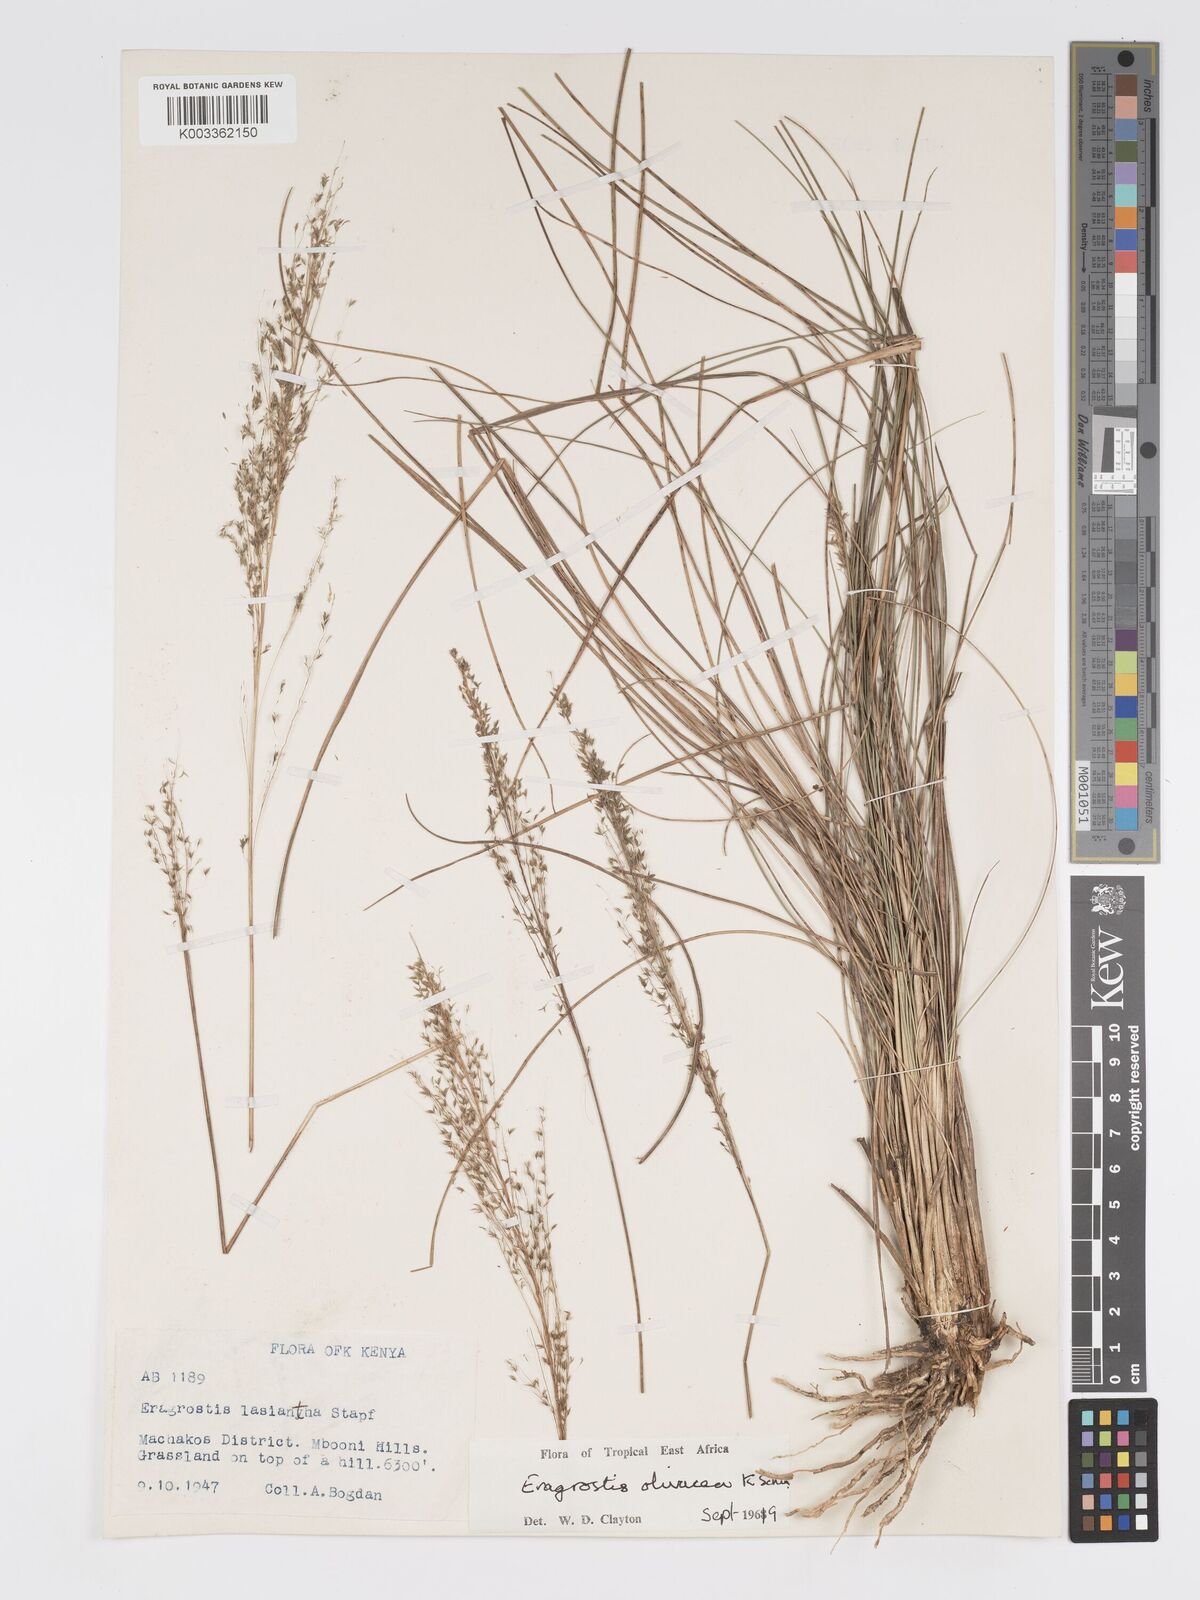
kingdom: Plantae
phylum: Tracheophyta
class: Liliopsida
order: Poales
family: Poaceae
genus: Eragrostis
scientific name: Eragrostis olivacea
